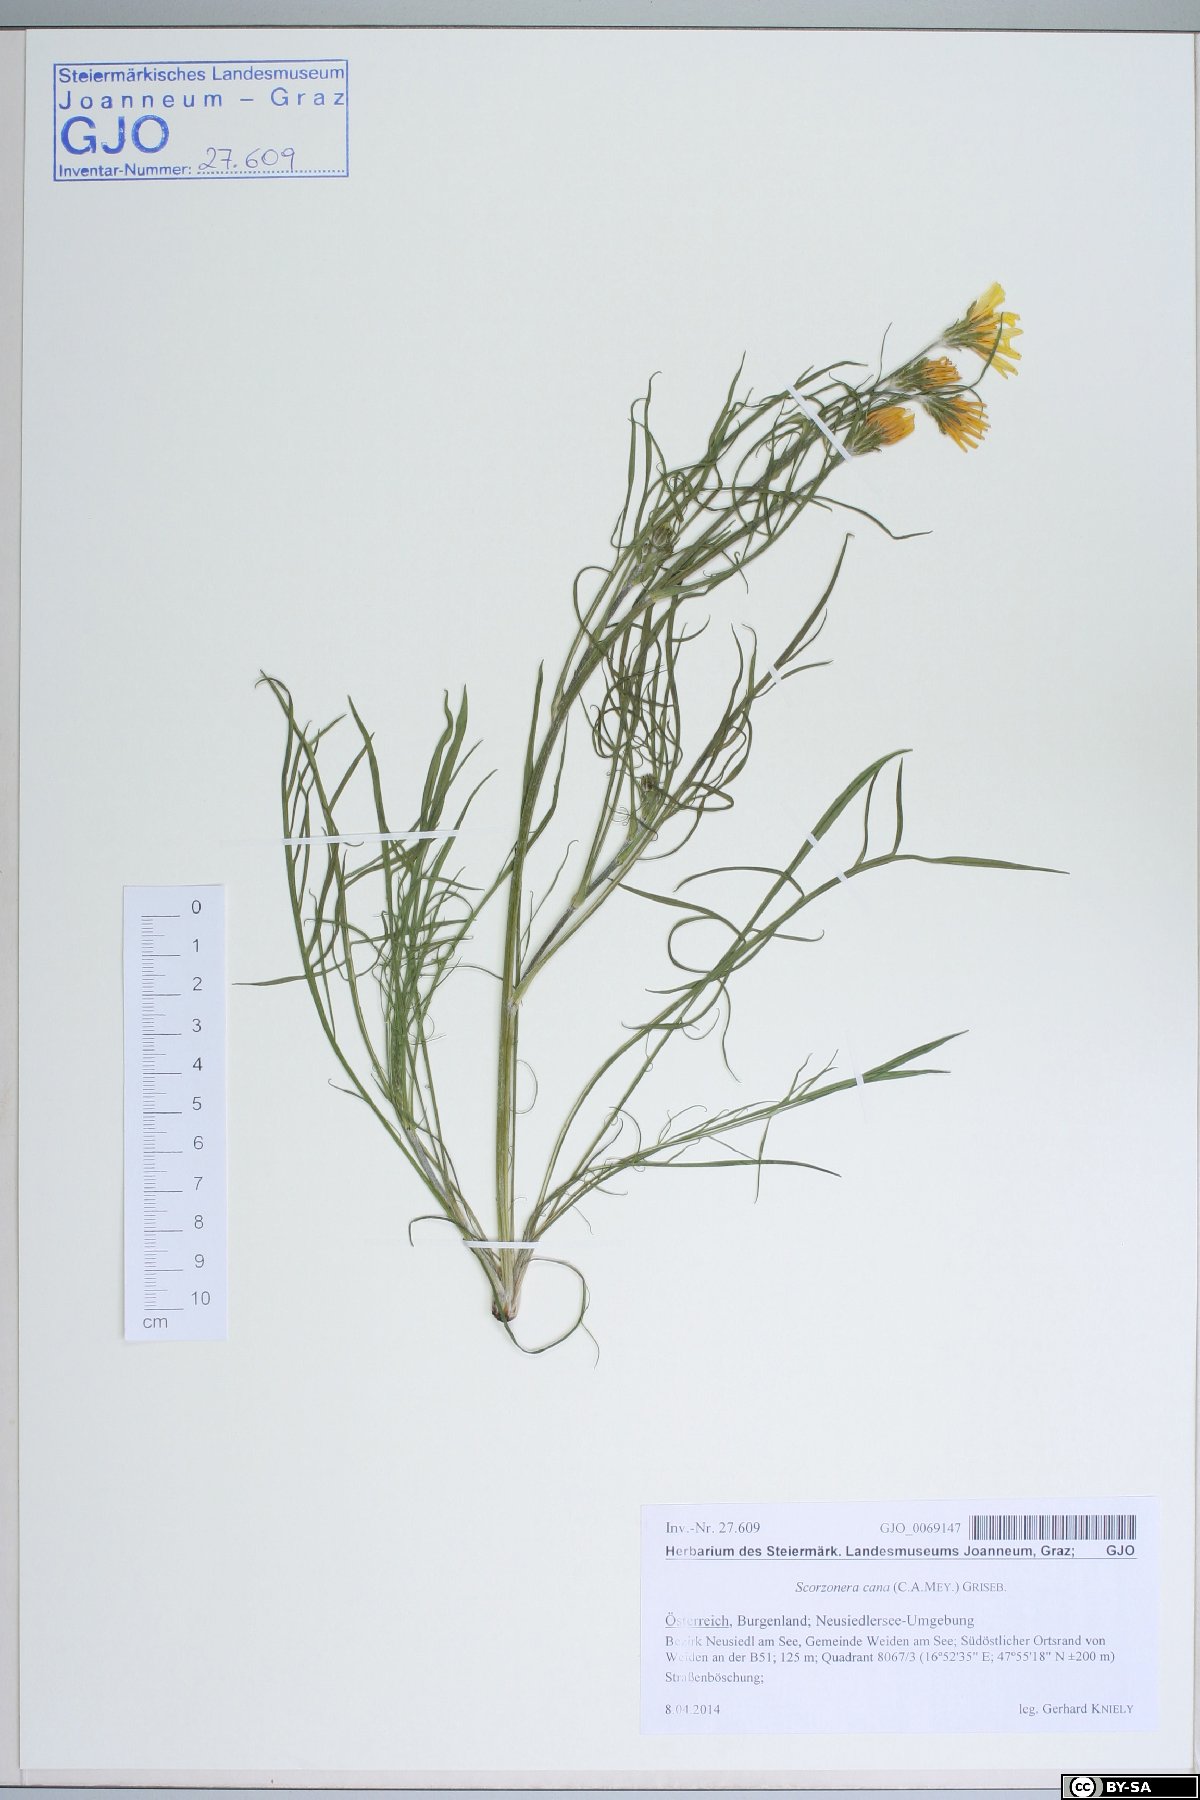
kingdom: Plantae
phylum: Tracheophyta
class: Magnoliopsida
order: Asterales
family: Asteraceae
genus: Scorzonera
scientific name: Scorzonera cana
